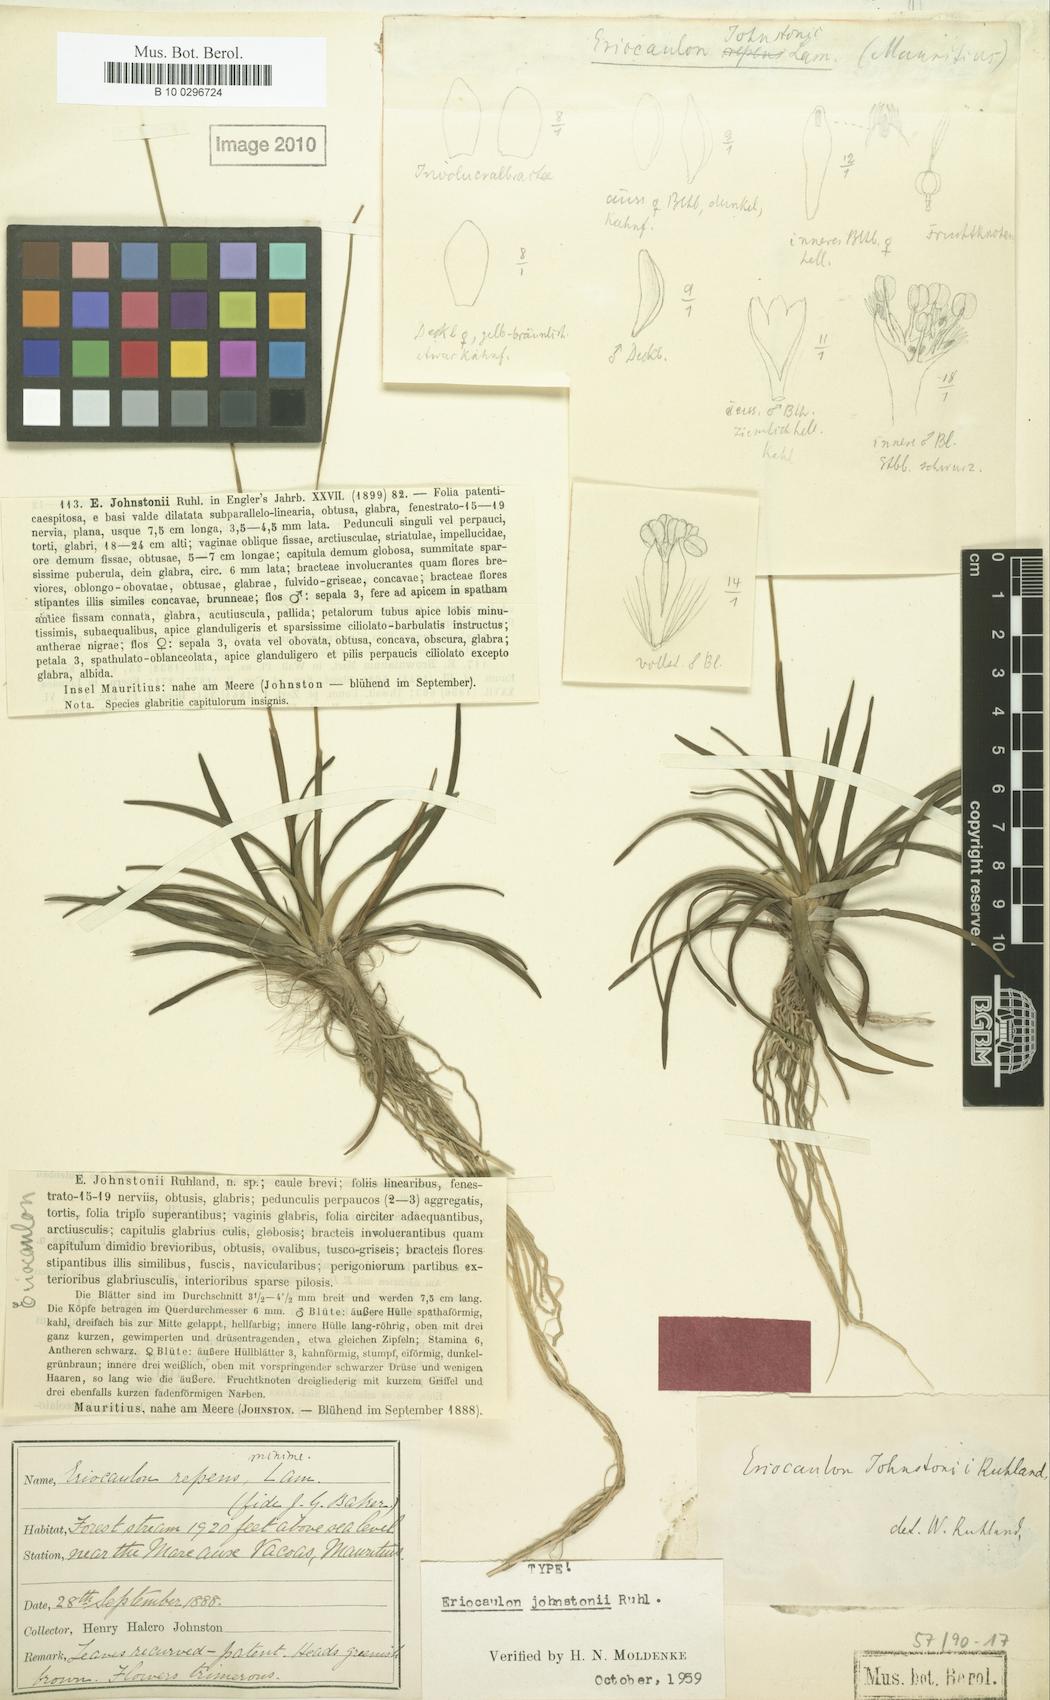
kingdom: Plantae
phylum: Tracheophyta
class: Liliopsida
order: Poales
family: Eriocaulaceae
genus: Eriocaulon
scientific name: Eriocaulon johnstonii
